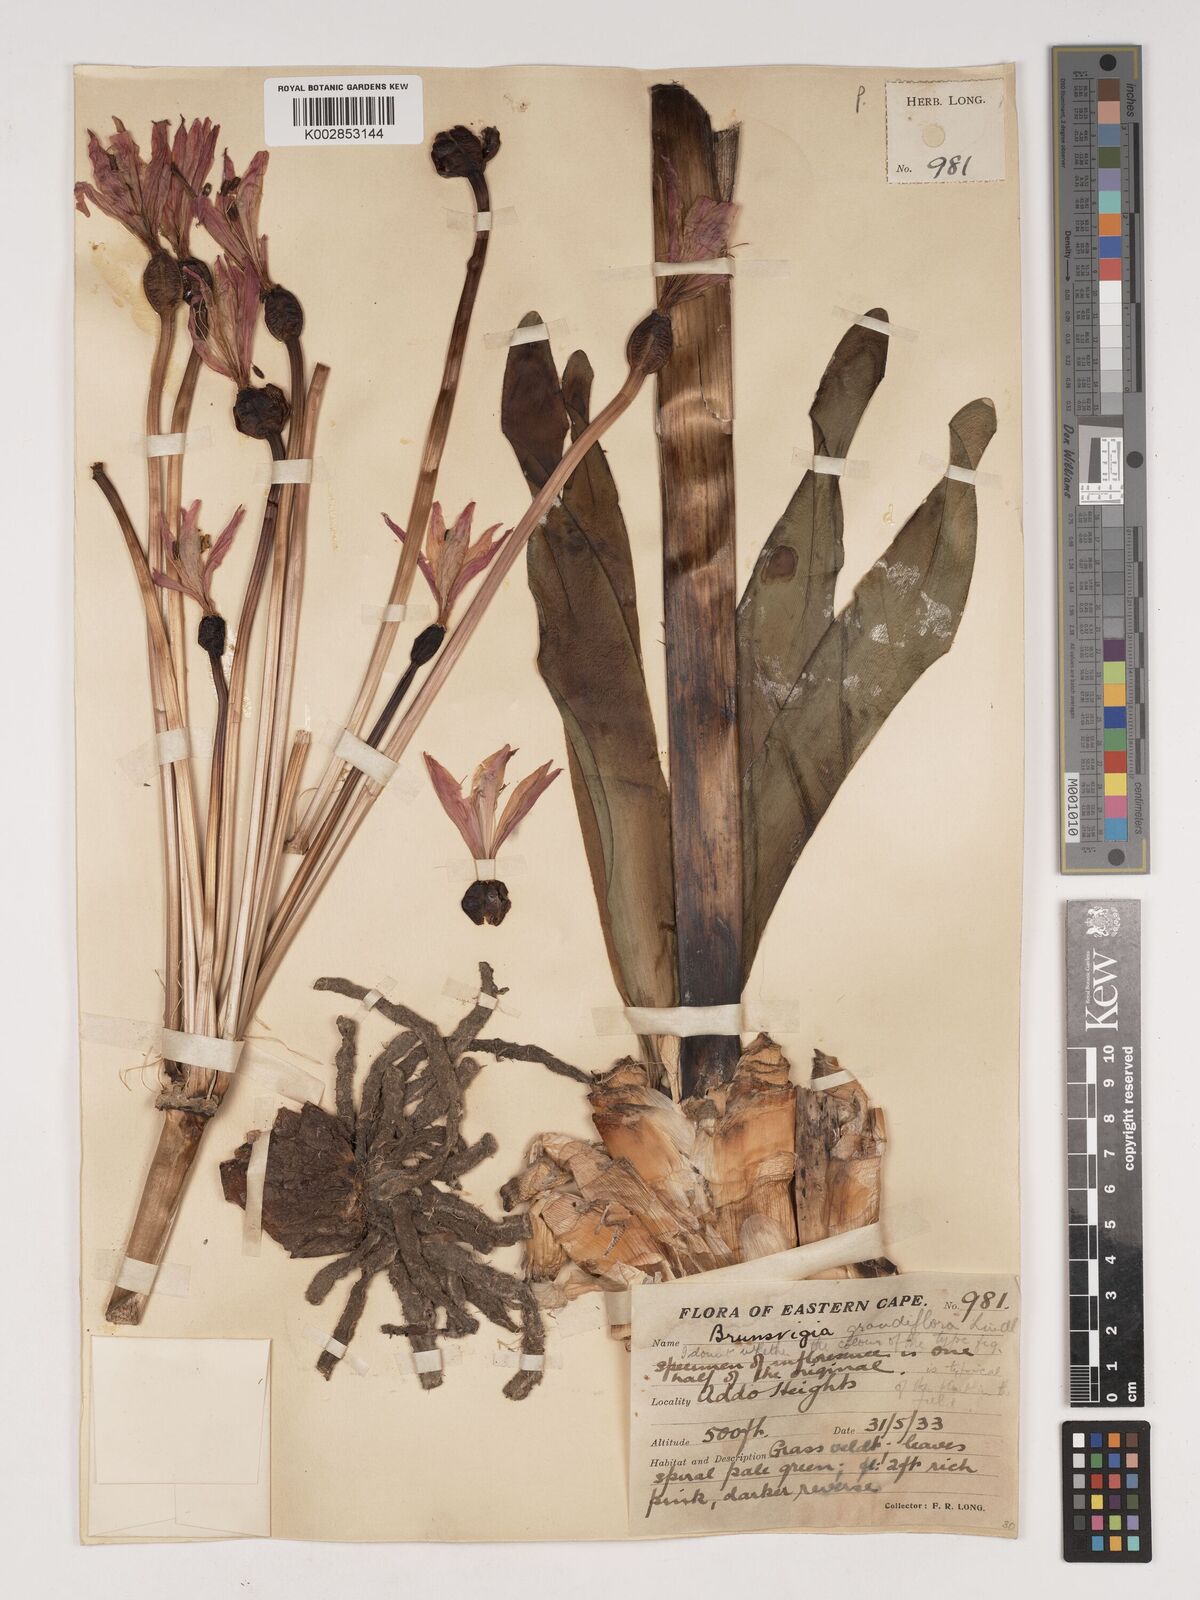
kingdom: Plantae
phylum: Tracheophyta
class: Liliopsida
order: Asparagales
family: Amaryllidaceae
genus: Brunsvigia
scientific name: Brunsvigia grandiflora
